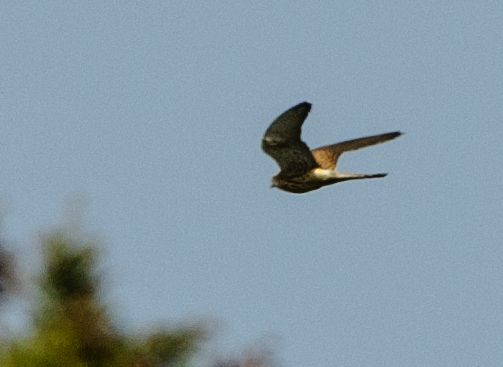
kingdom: Animalia
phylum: Chordata
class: Aves
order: Falconiformes
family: Falconidae
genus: Falco
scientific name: Falco tinnunculus
